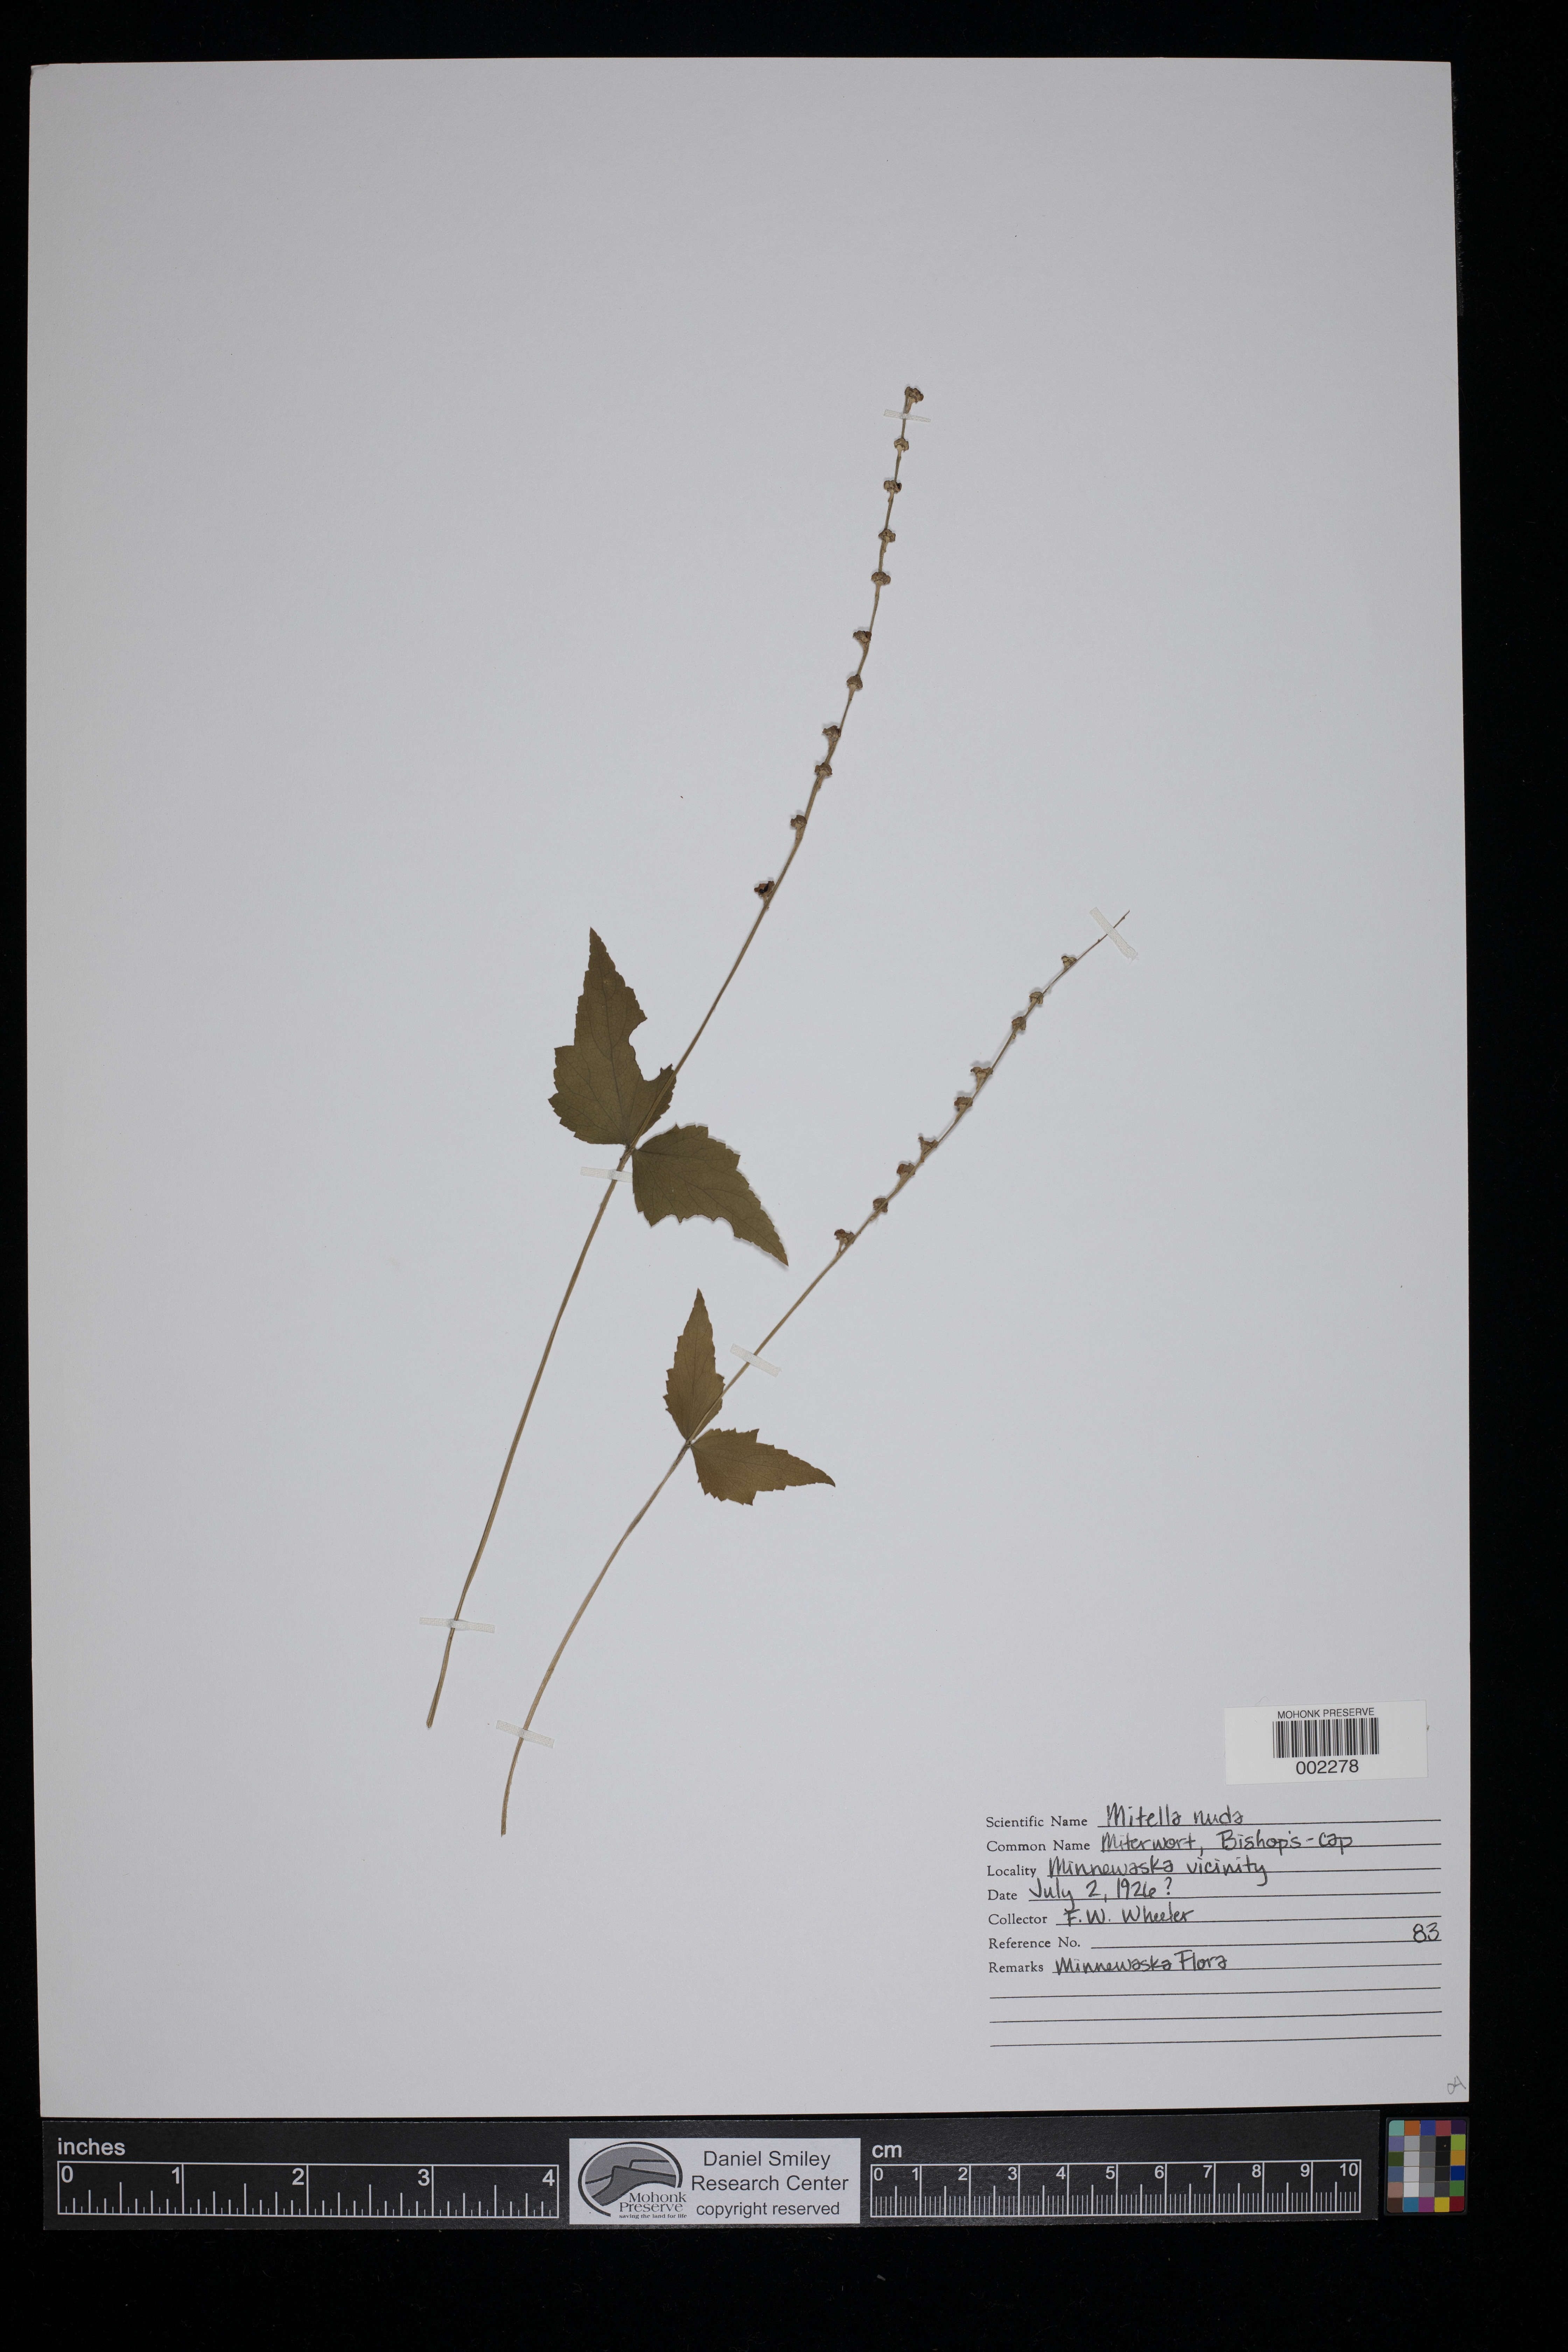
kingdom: Plantae
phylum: Tracheophyta
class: Magnoliopsida
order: Saxifragales
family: Saxifragaceae
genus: Mitella
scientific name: Mitella nuda
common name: Bare-stemmed bishop's-cap
